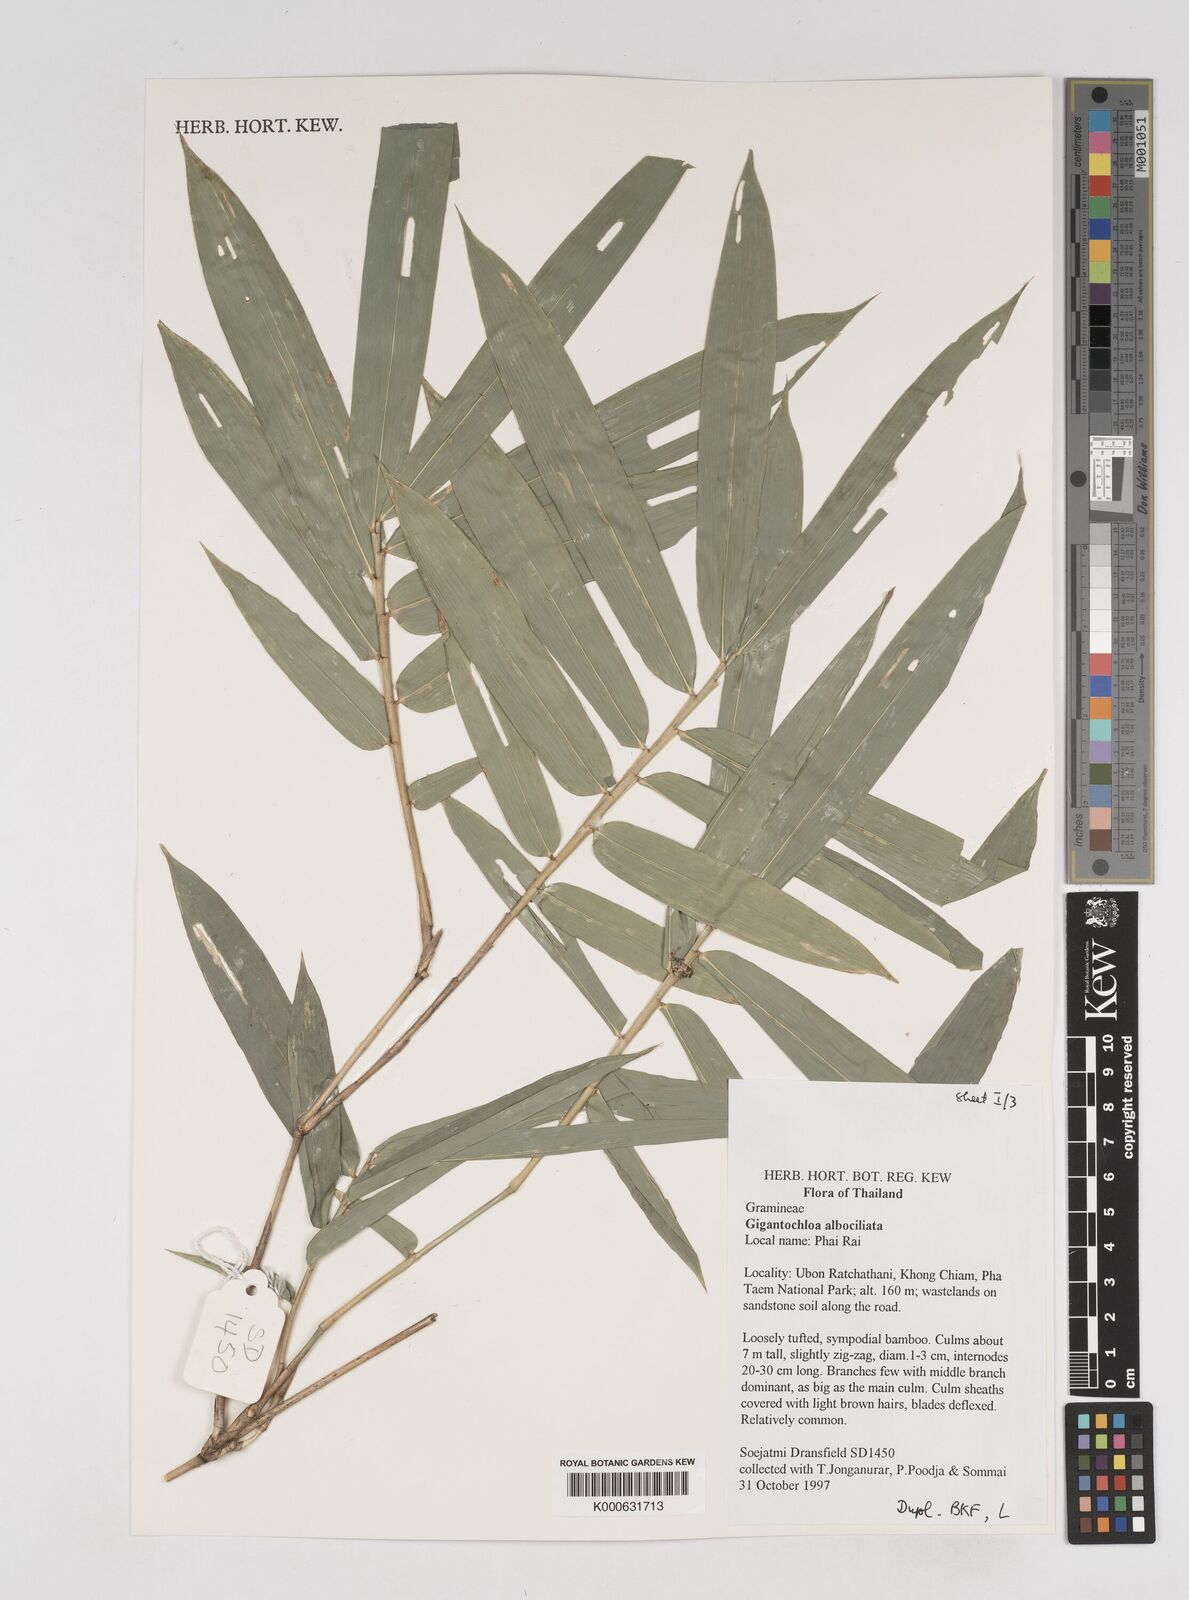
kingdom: Plantae
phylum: Tracheophyta
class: Liliopsida
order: Poales
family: Poaceae
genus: Gigantochloa
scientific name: Gigantochloa albociliata
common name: White-fringe gigantochloa
